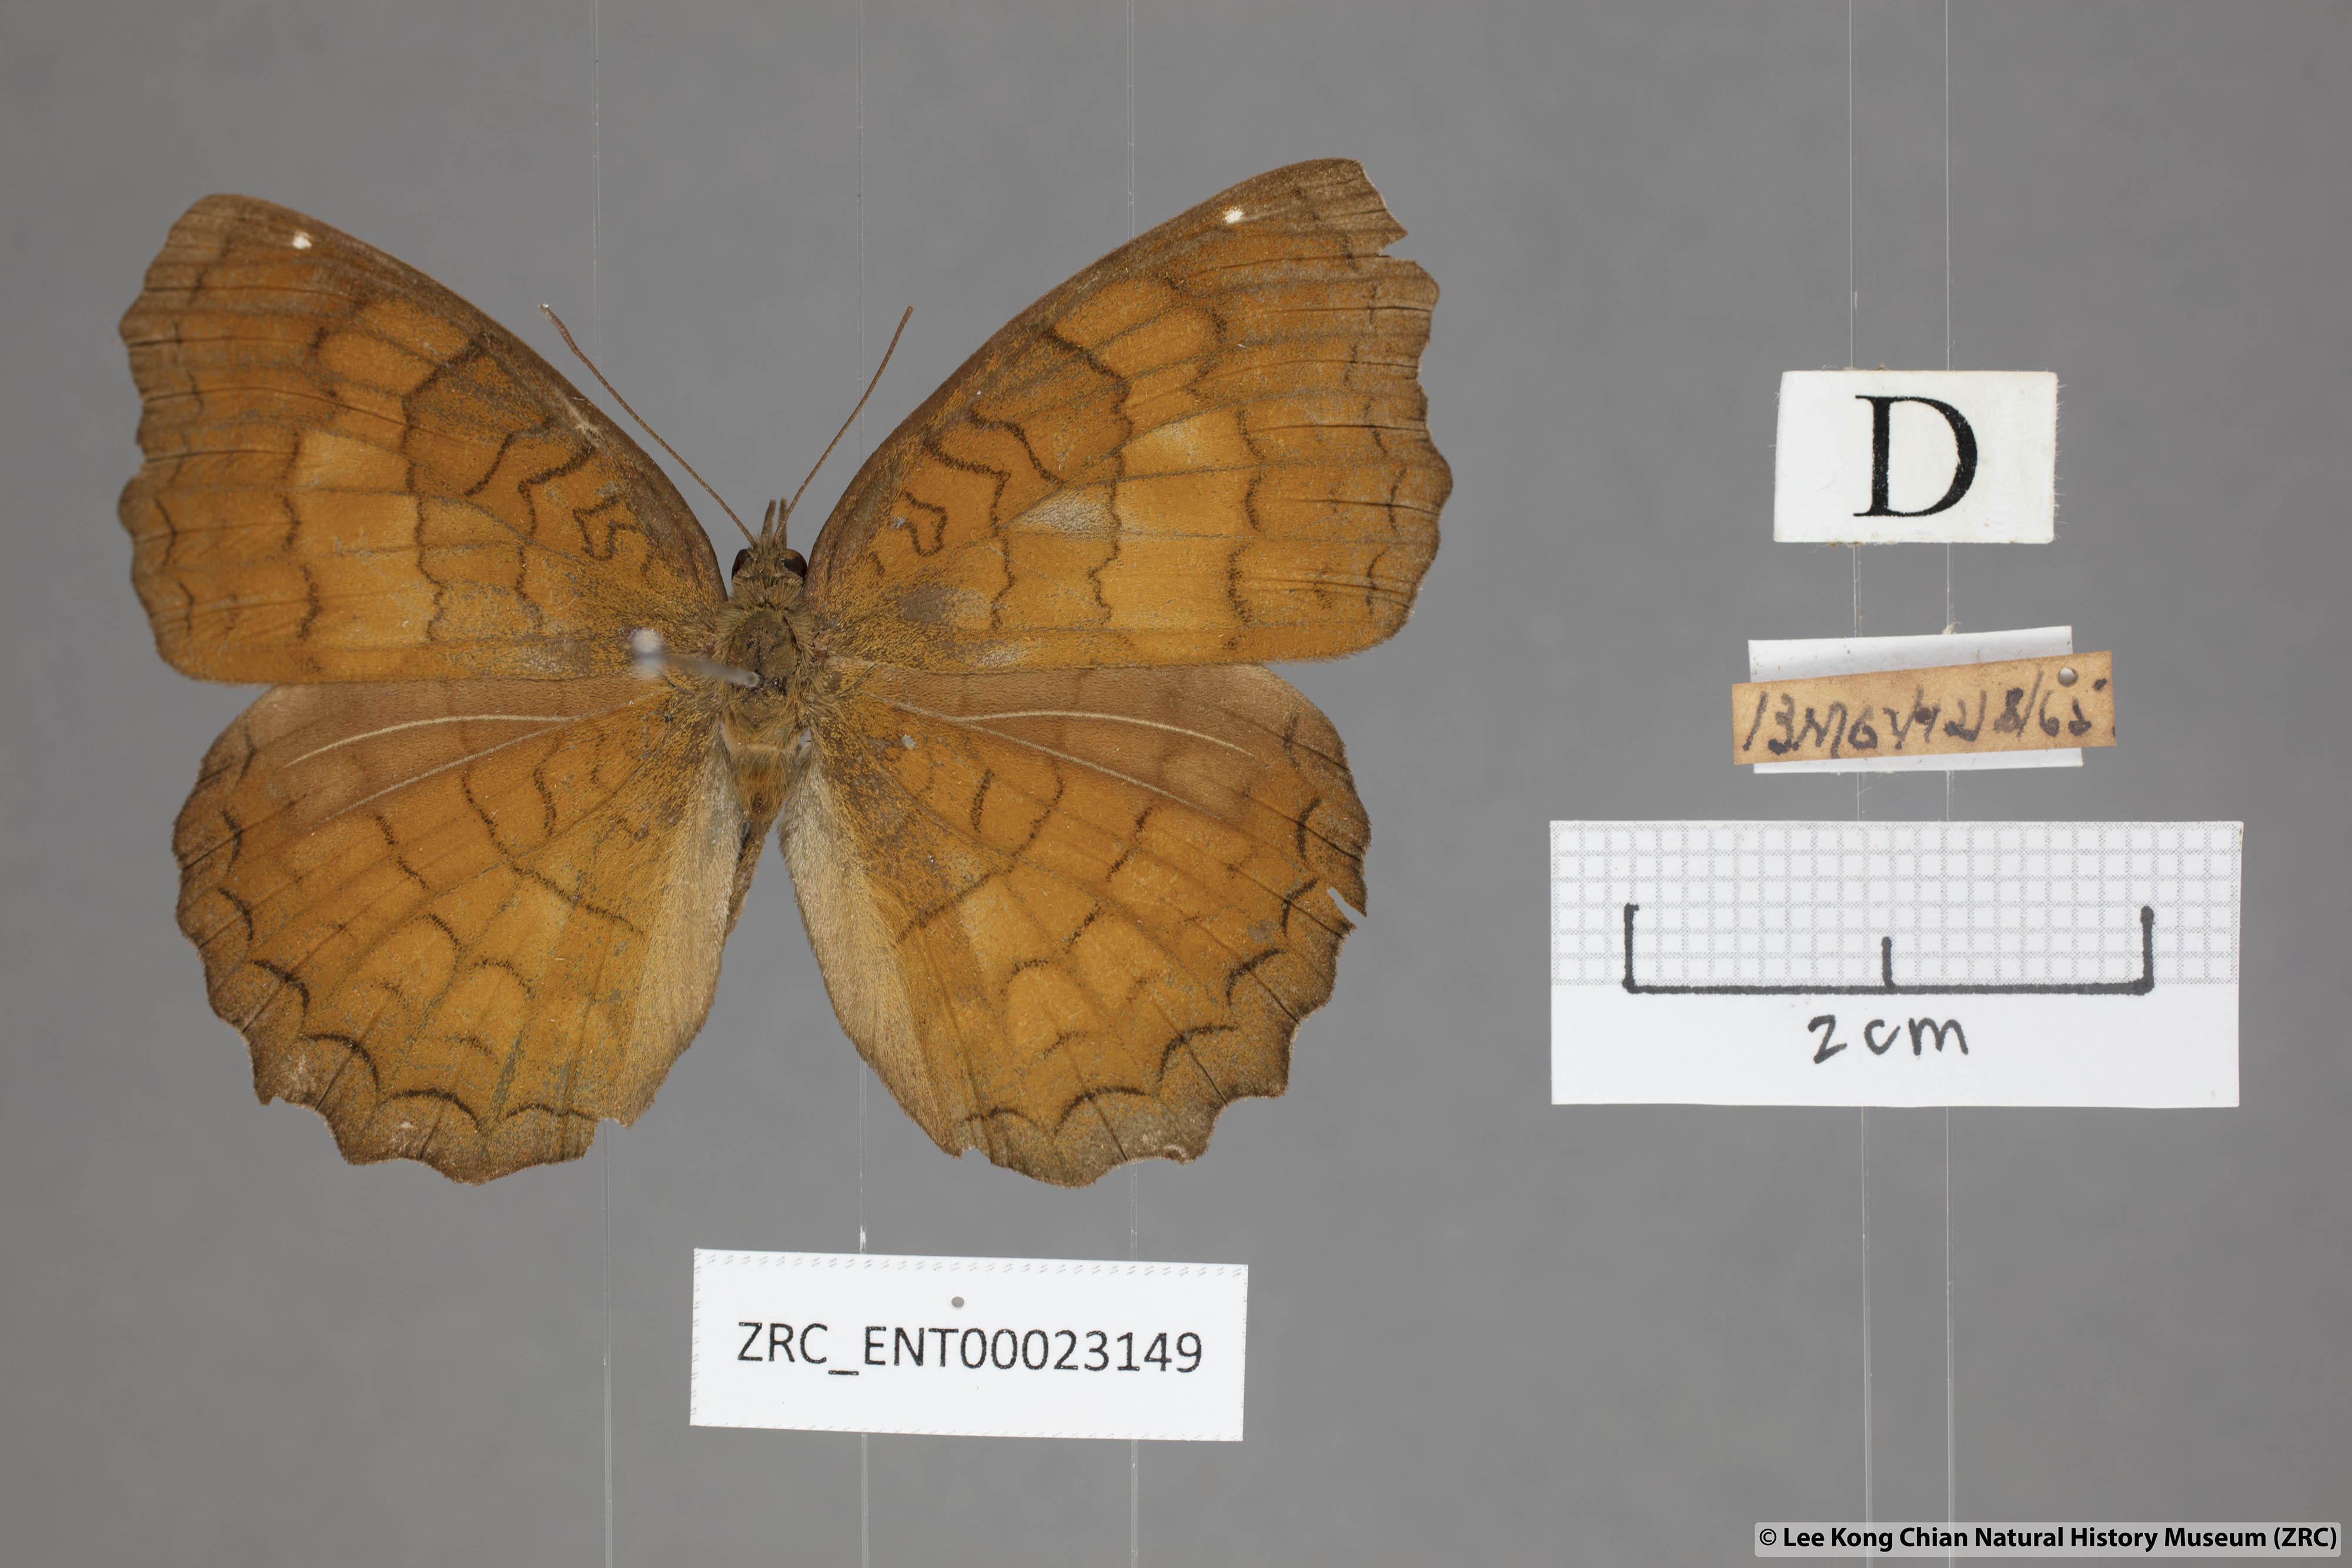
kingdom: Animalia
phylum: Arthropoda
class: Insecta
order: Lepidoptera
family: Nymphalidae
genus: Ariadne
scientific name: Ariadne ariadne
